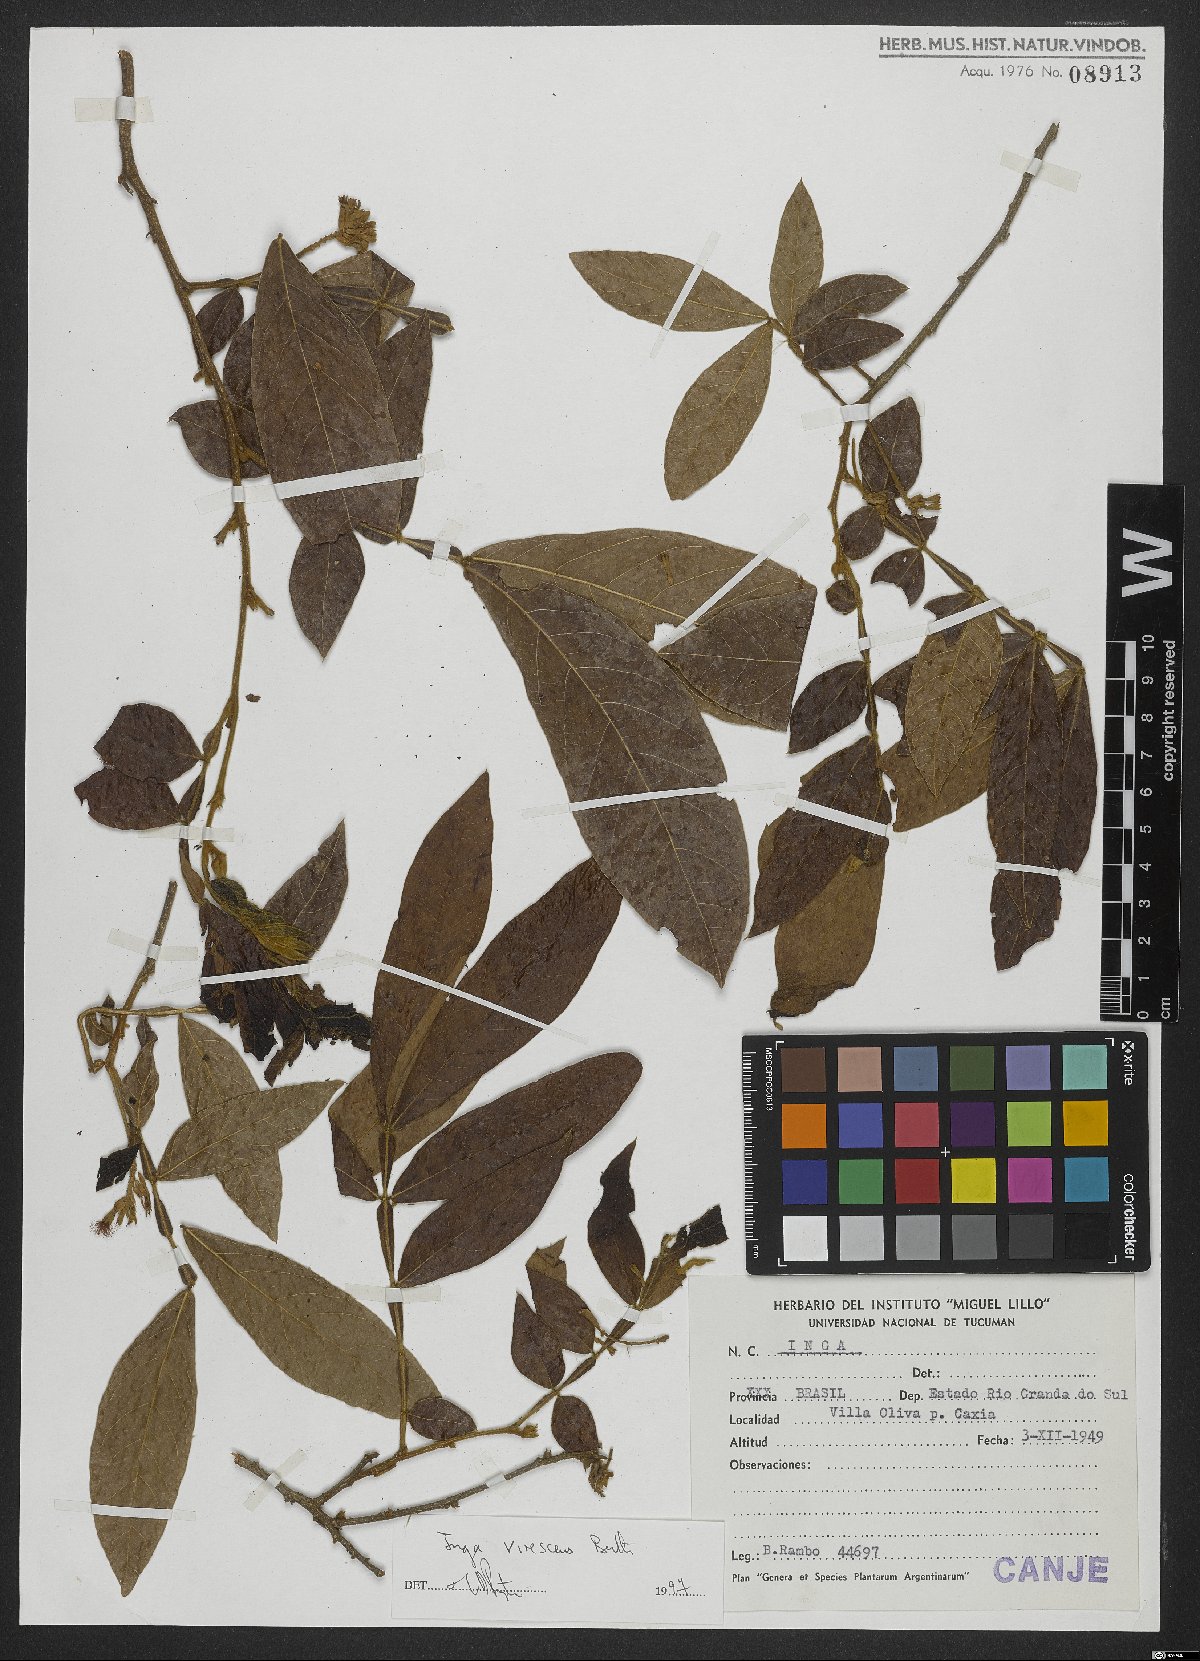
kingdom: Plantae
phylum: Tracheophyta
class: Magnoliopsida
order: Fabales
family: Fabaceae
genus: Inga
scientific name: Inga virescens
